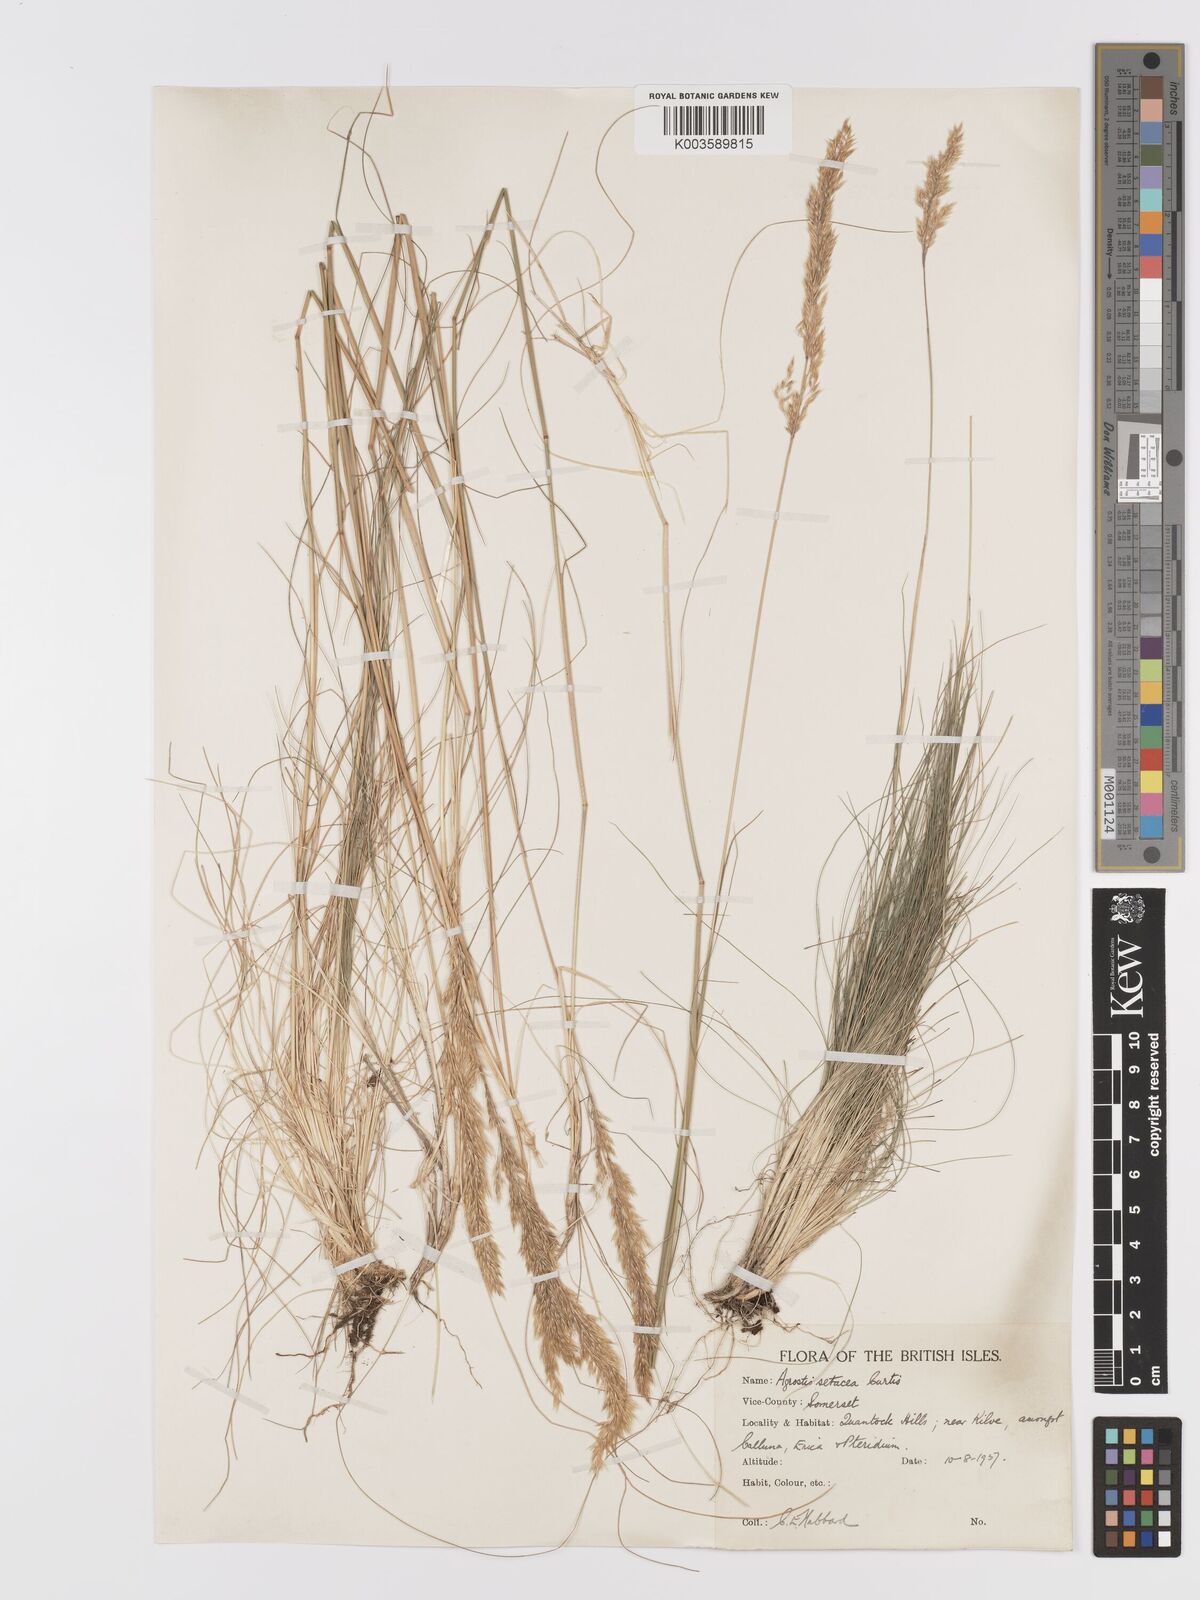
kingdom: Plantae
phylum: Tracheophyta
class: Liliopsida
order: Poales
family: Poaceae
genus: Alpagrostis
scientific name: Alpagrostis setacea
